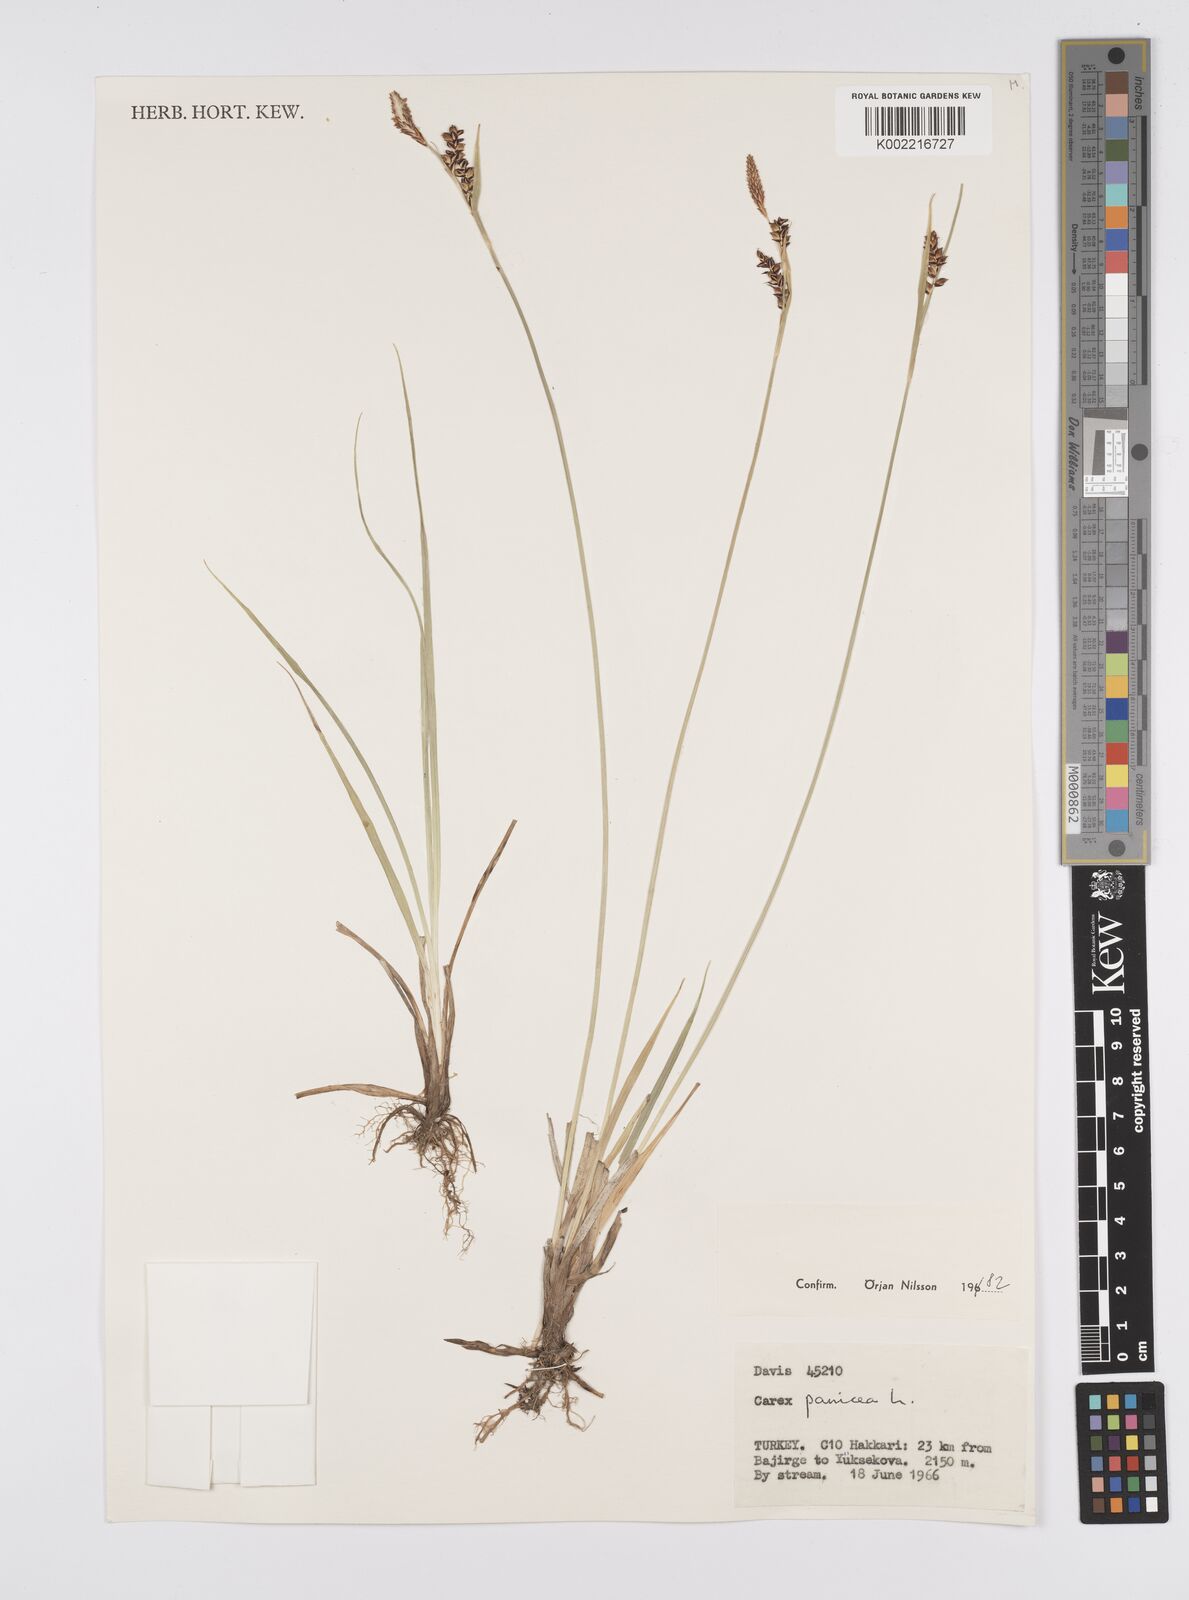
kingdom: Plantae
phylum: Tracheophyta
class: Liliopsida
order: Poales
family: Cyperaceae
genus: Carex
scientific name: Carex panicea
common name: Carnation sedge
